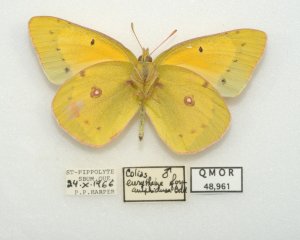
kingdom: Animalia
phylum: Arthropoda
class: Insecta
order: Lepidoptera
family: Pieridae
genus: Colias
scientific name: Colias eurytheme
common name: Orange Sulphur
